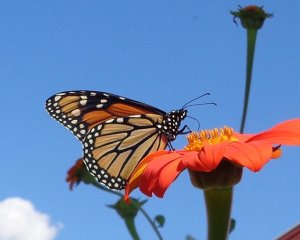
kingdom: Animalia
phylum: Arthropoda
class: Insecta
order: Lepidoptera
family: Nymphalidae
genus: Danaus
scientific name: Danaus plexippus
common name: Monarch
